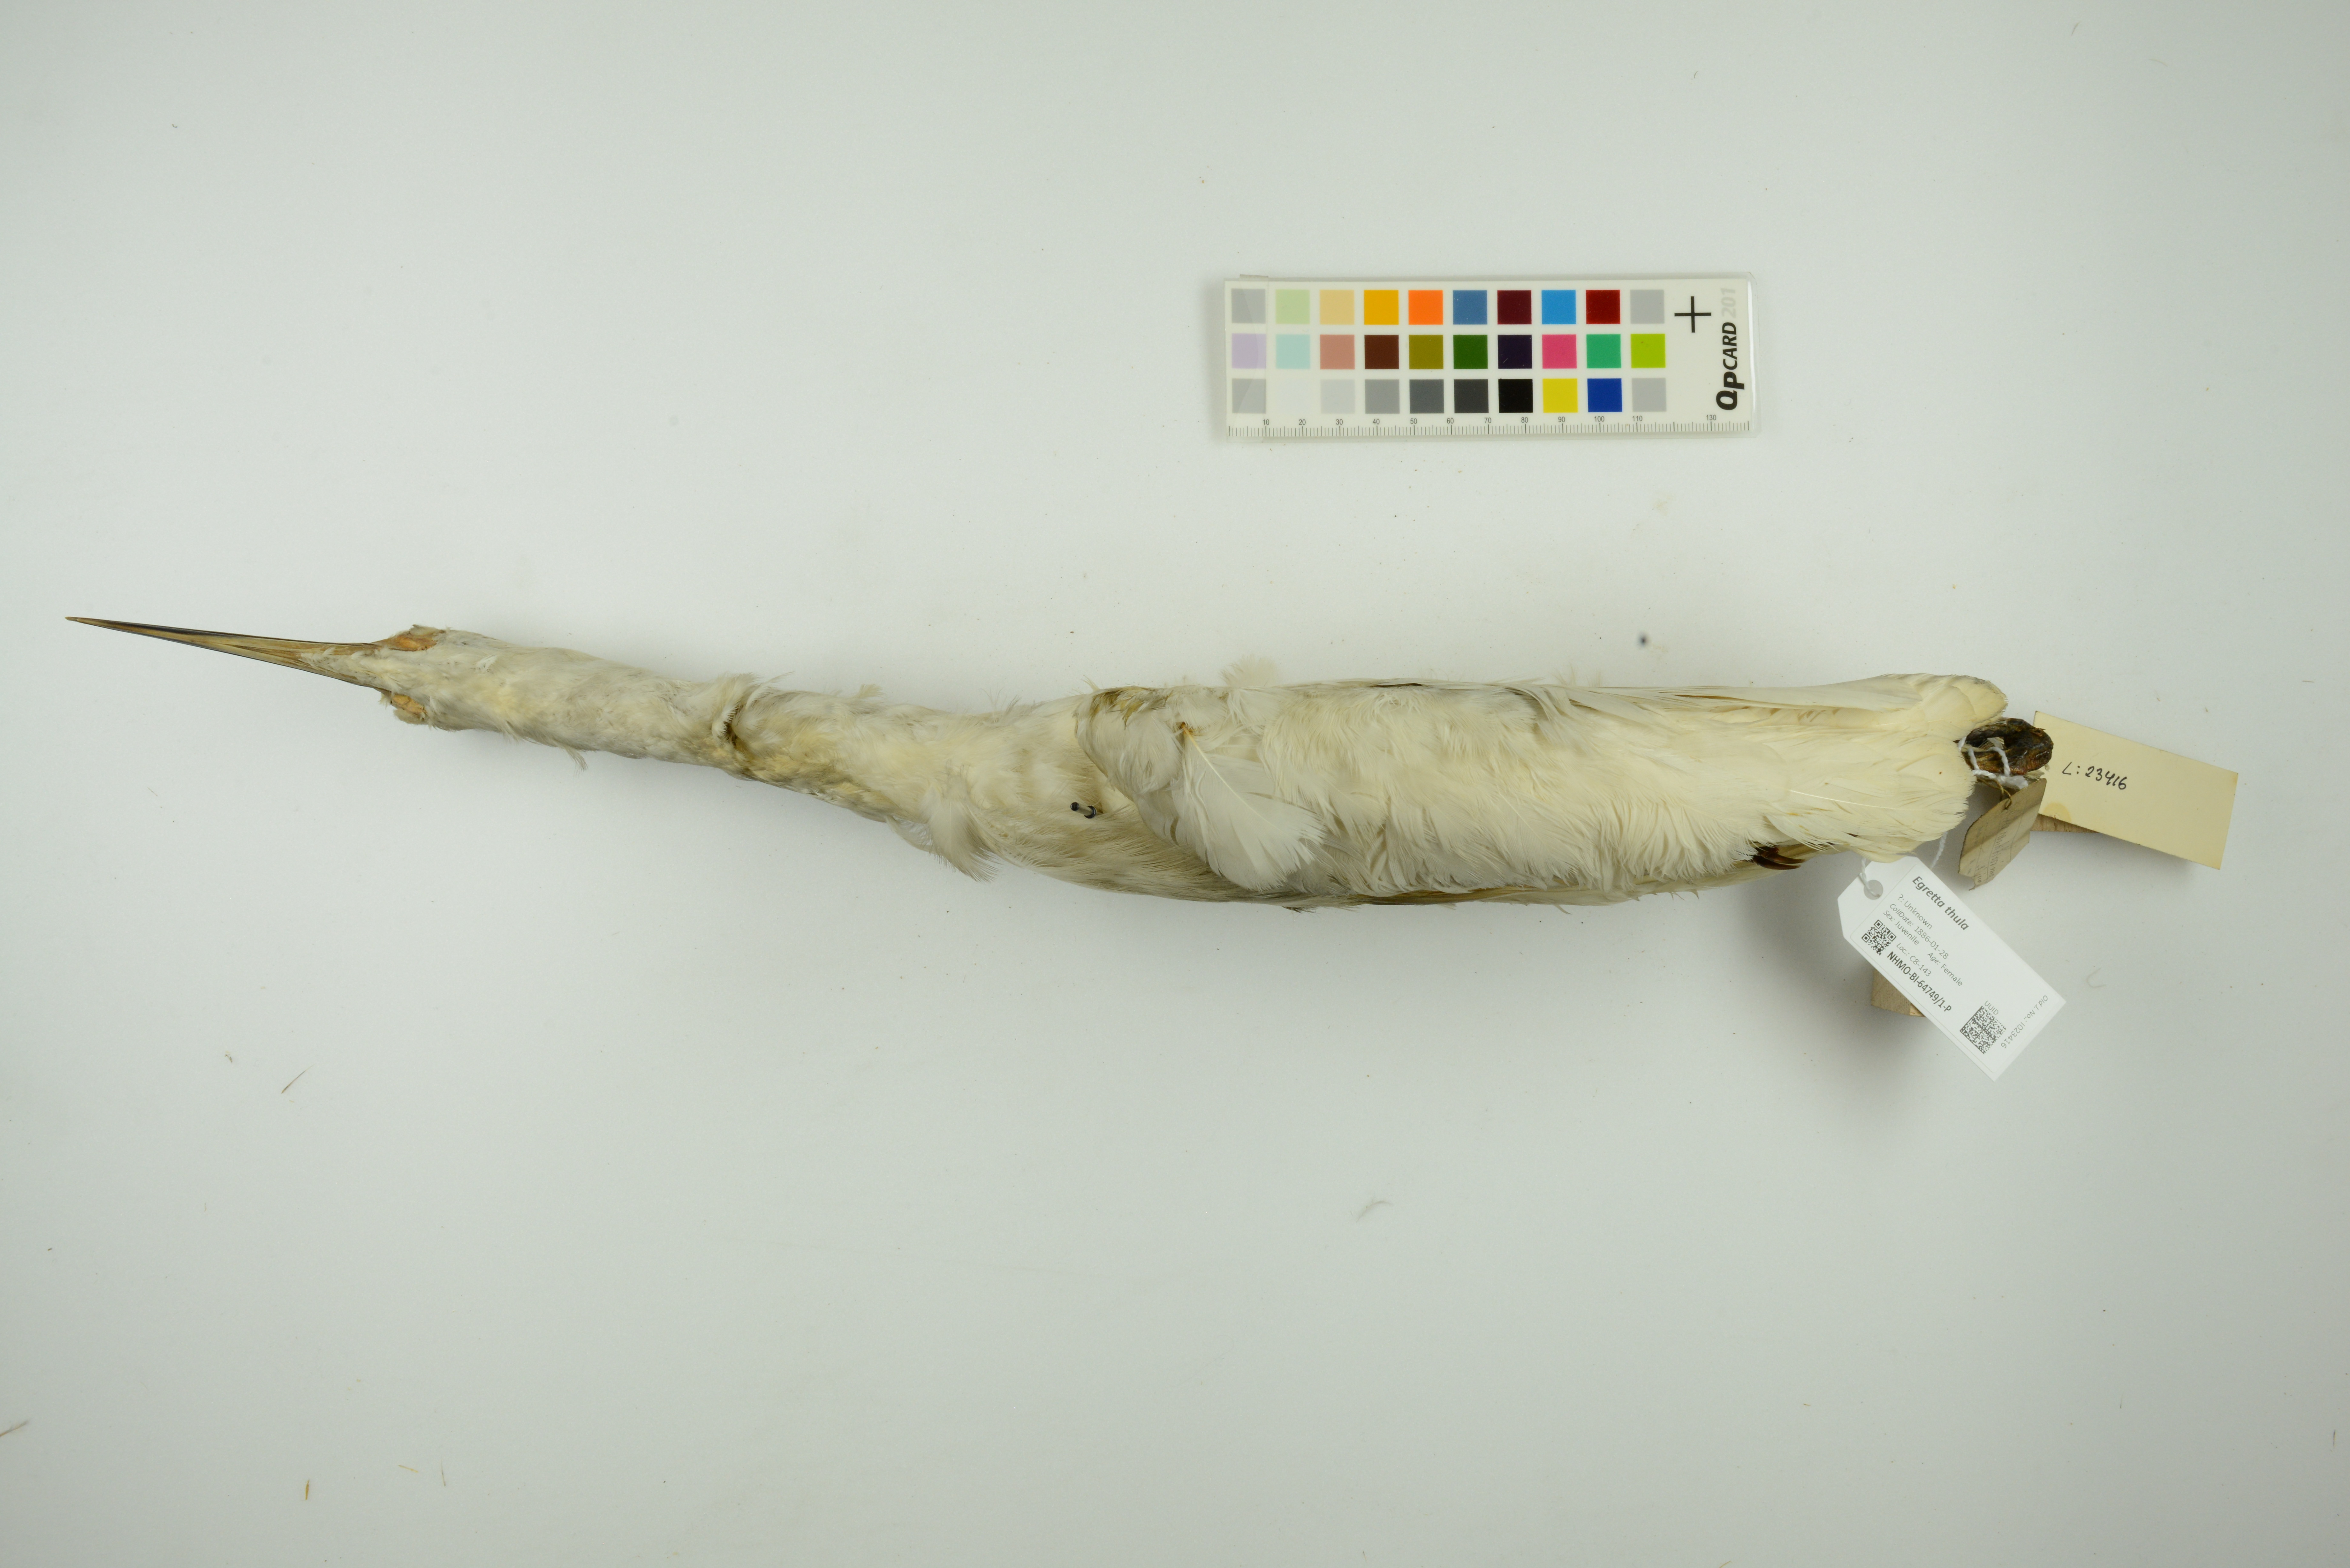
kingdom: Animalia
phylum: Chordata
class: Aves
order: Pelecaniformes
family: Ardeidae
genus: Egretta
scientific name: Egretta thula
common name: Snowy egret
